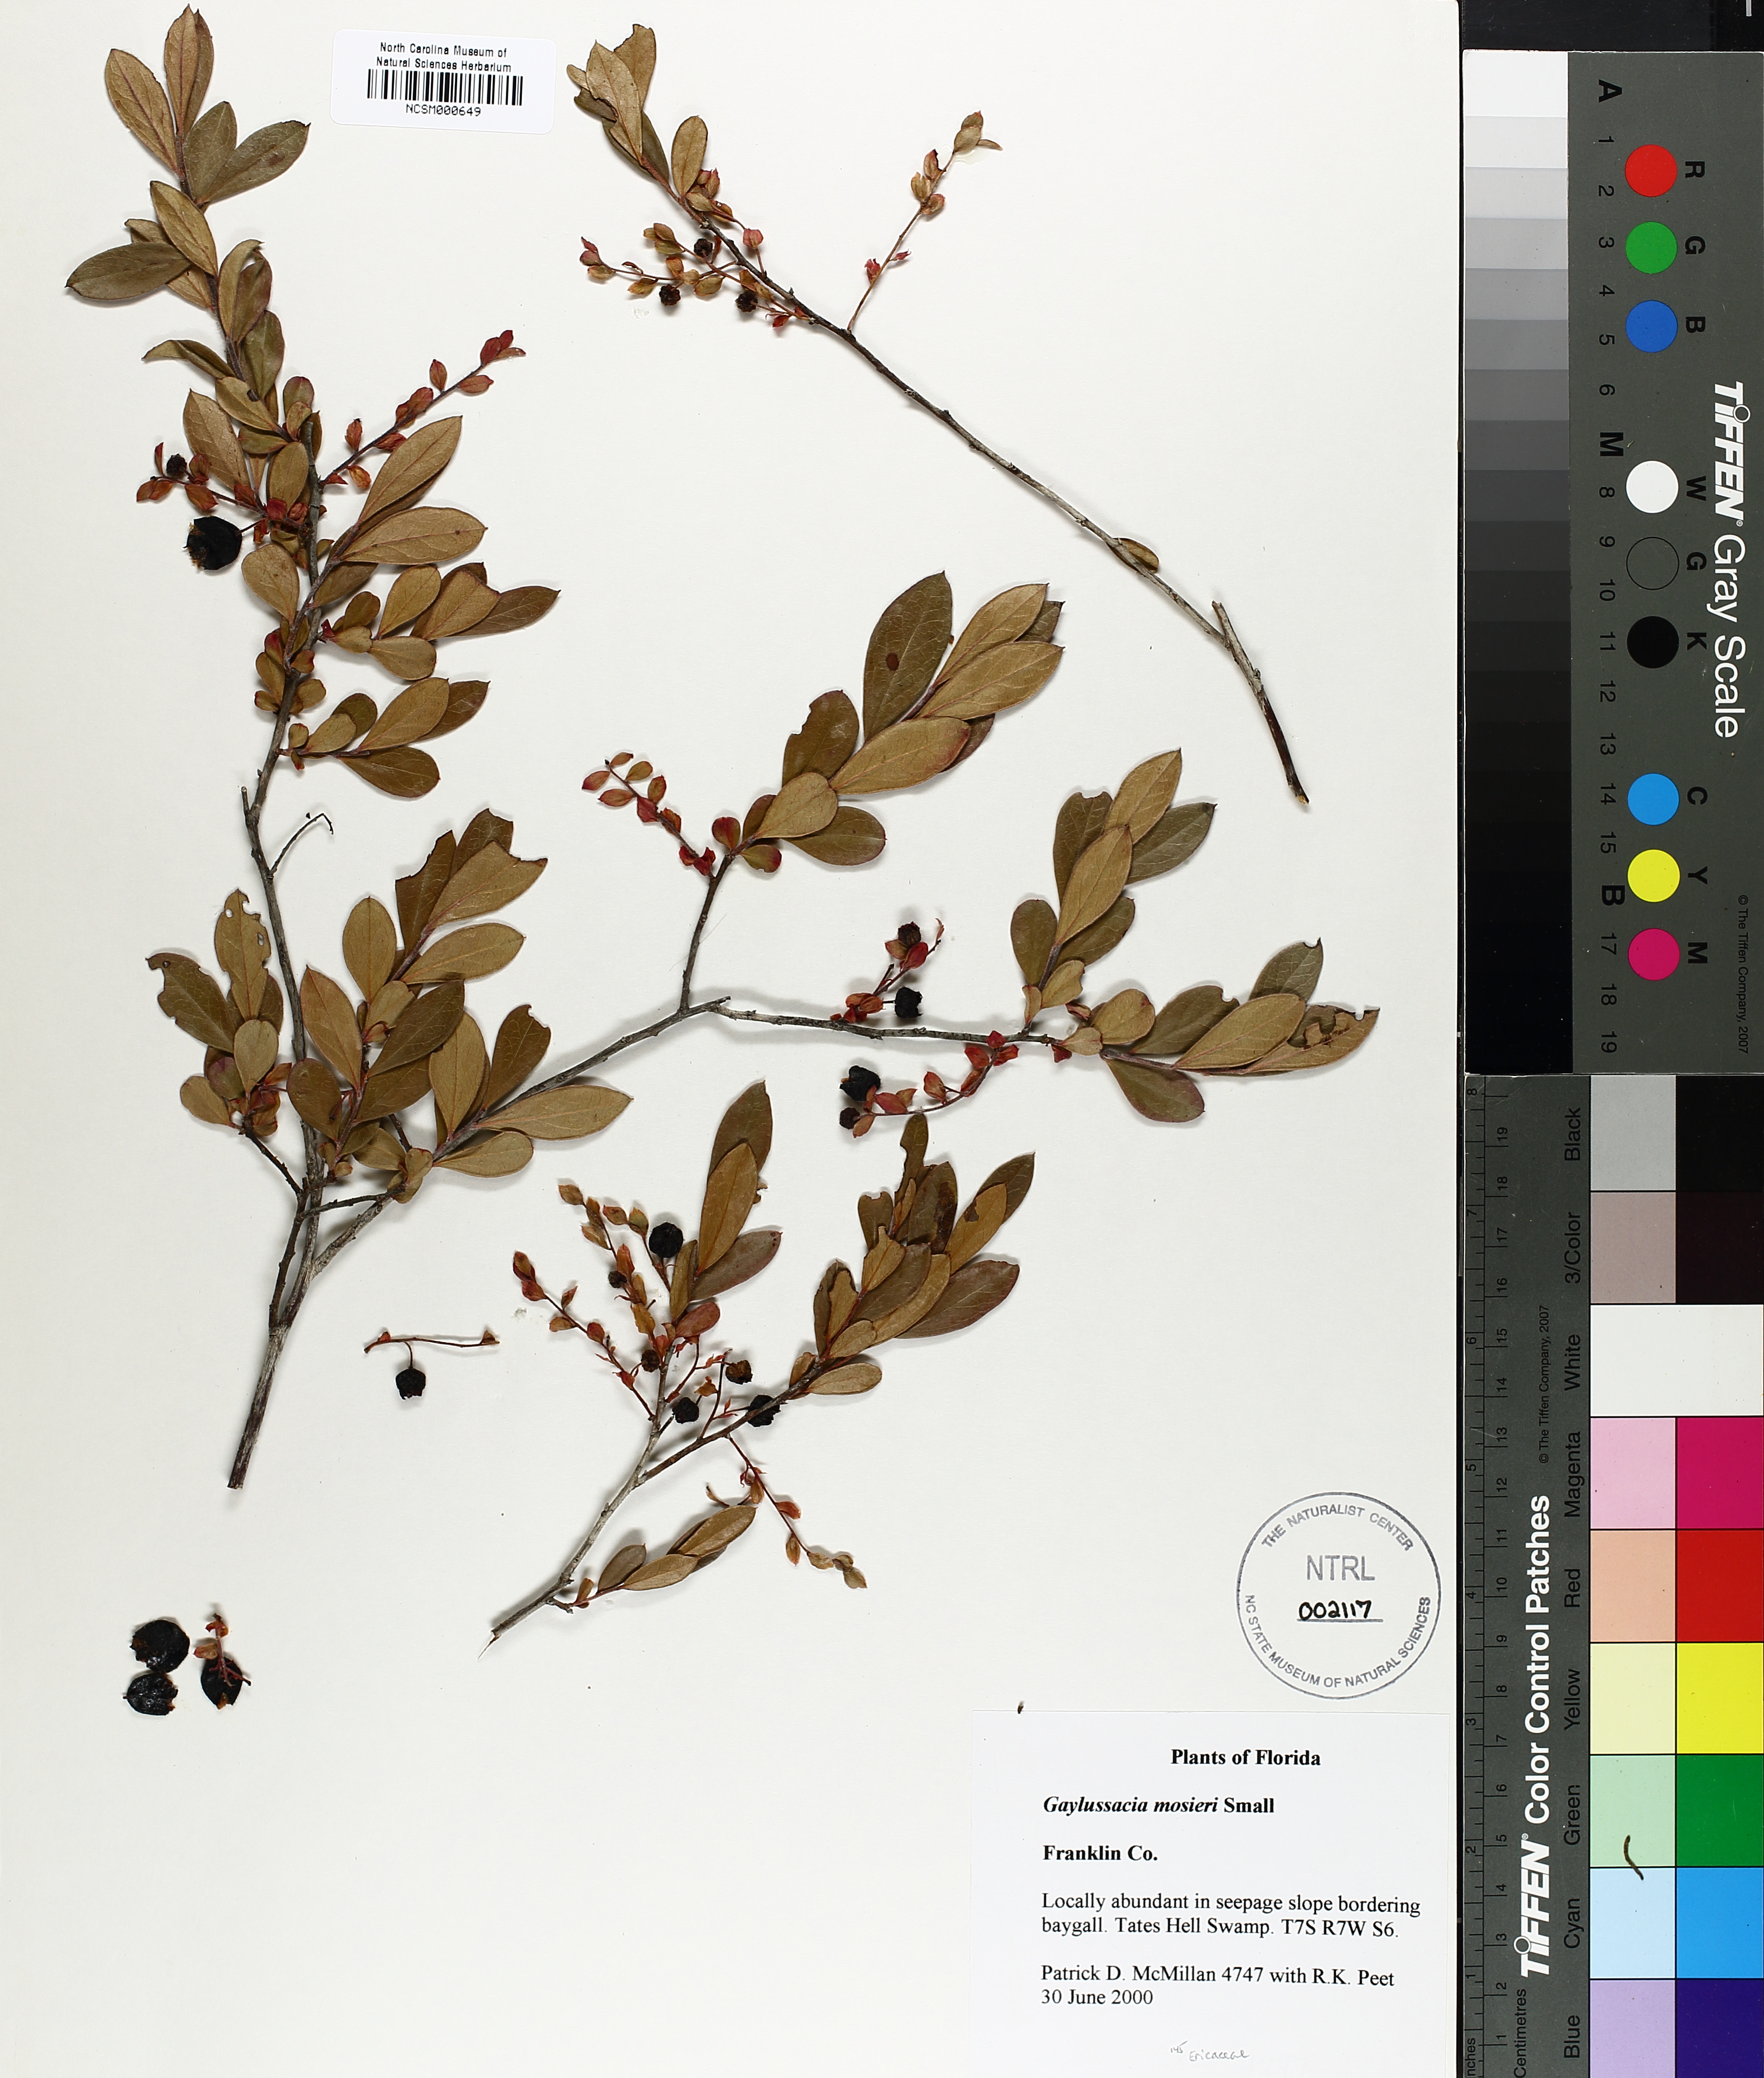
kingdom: Plantae
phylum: Tracheophyta
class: Magnoliopsida
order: Ericales
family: Ericaceae
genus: Gaylussacia
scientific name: Gaylussacia mosieri
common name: Hirsute huckleberry
